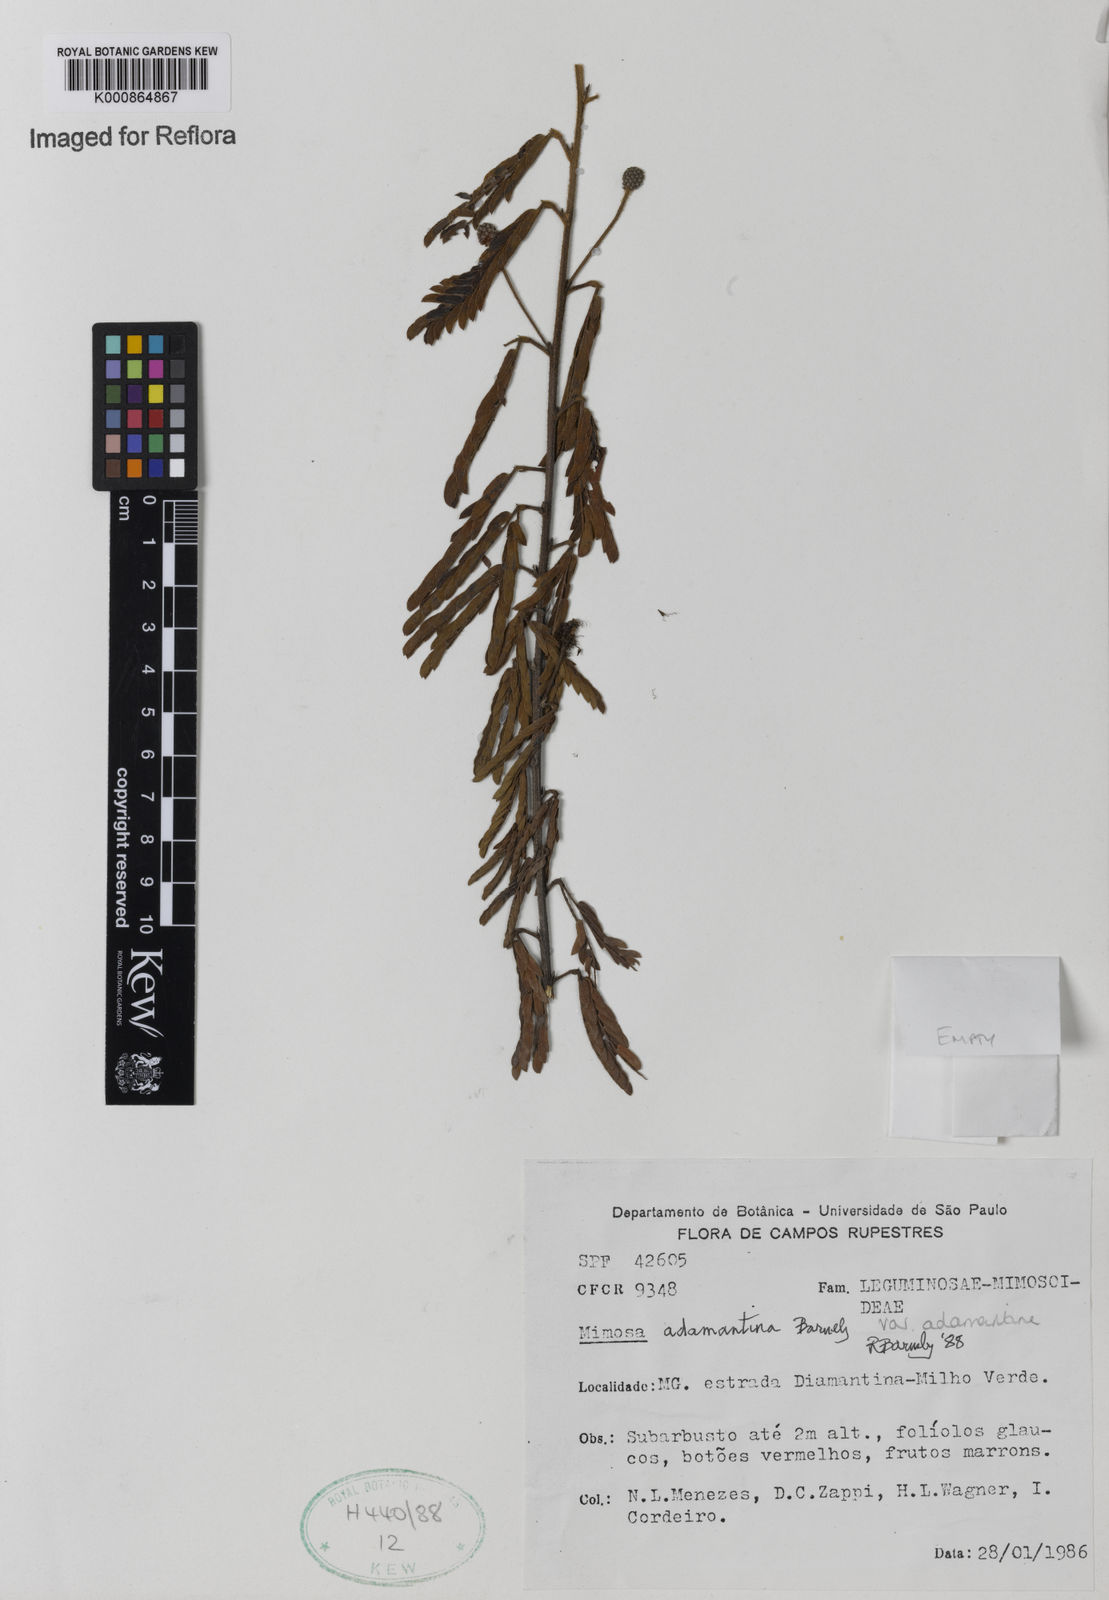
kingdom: Plantae
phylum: Tracheophyta
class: Magnoliopsida
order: Fabales
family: Fabaceae
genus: Mimosa
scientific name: Mimosa adamantina
